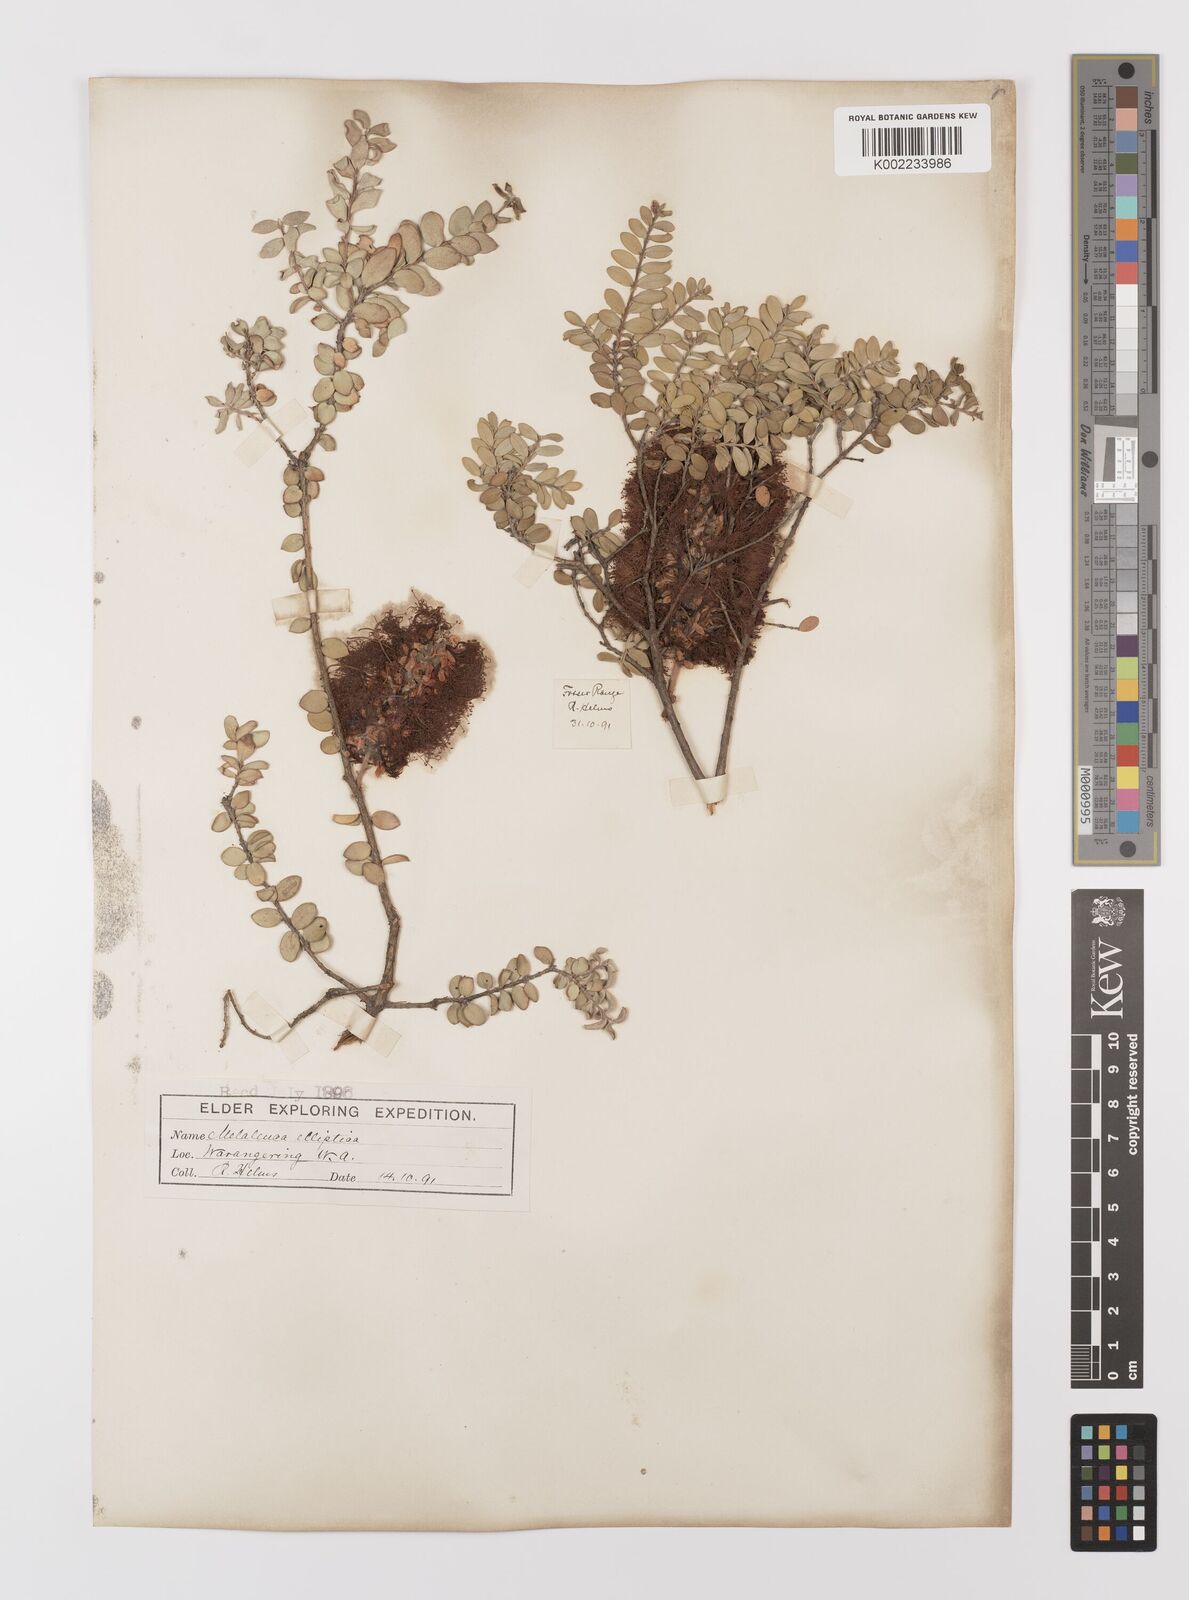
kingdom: Plantae
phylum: Tracheophyta
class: Magnoliopsida
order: Myrtales
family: Myrtaceae
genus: Melaleuca
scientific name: Melaleuca elliptica
